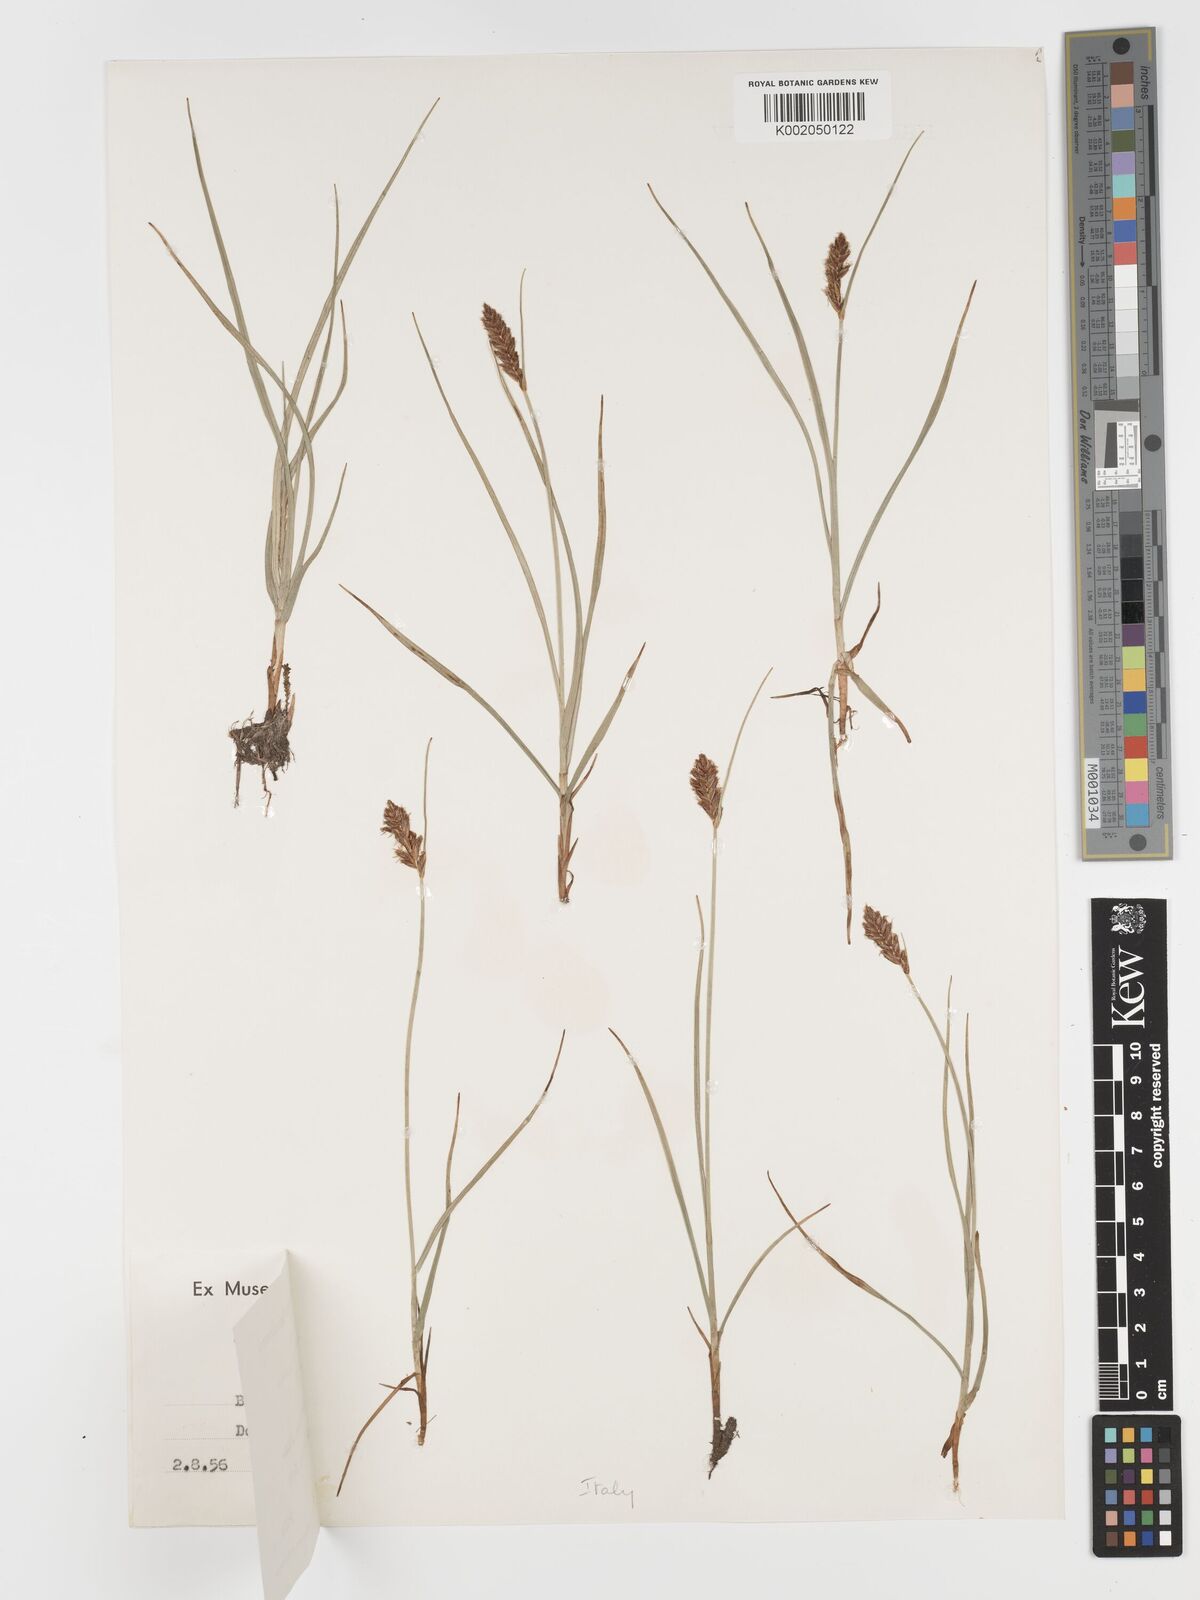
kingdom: Plantae
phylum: Tracheophyta
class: Liliopsida
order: Poales
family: Cyperaceae
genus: Blysmus
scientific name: Blysmus compressus
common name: Flat-sedge
